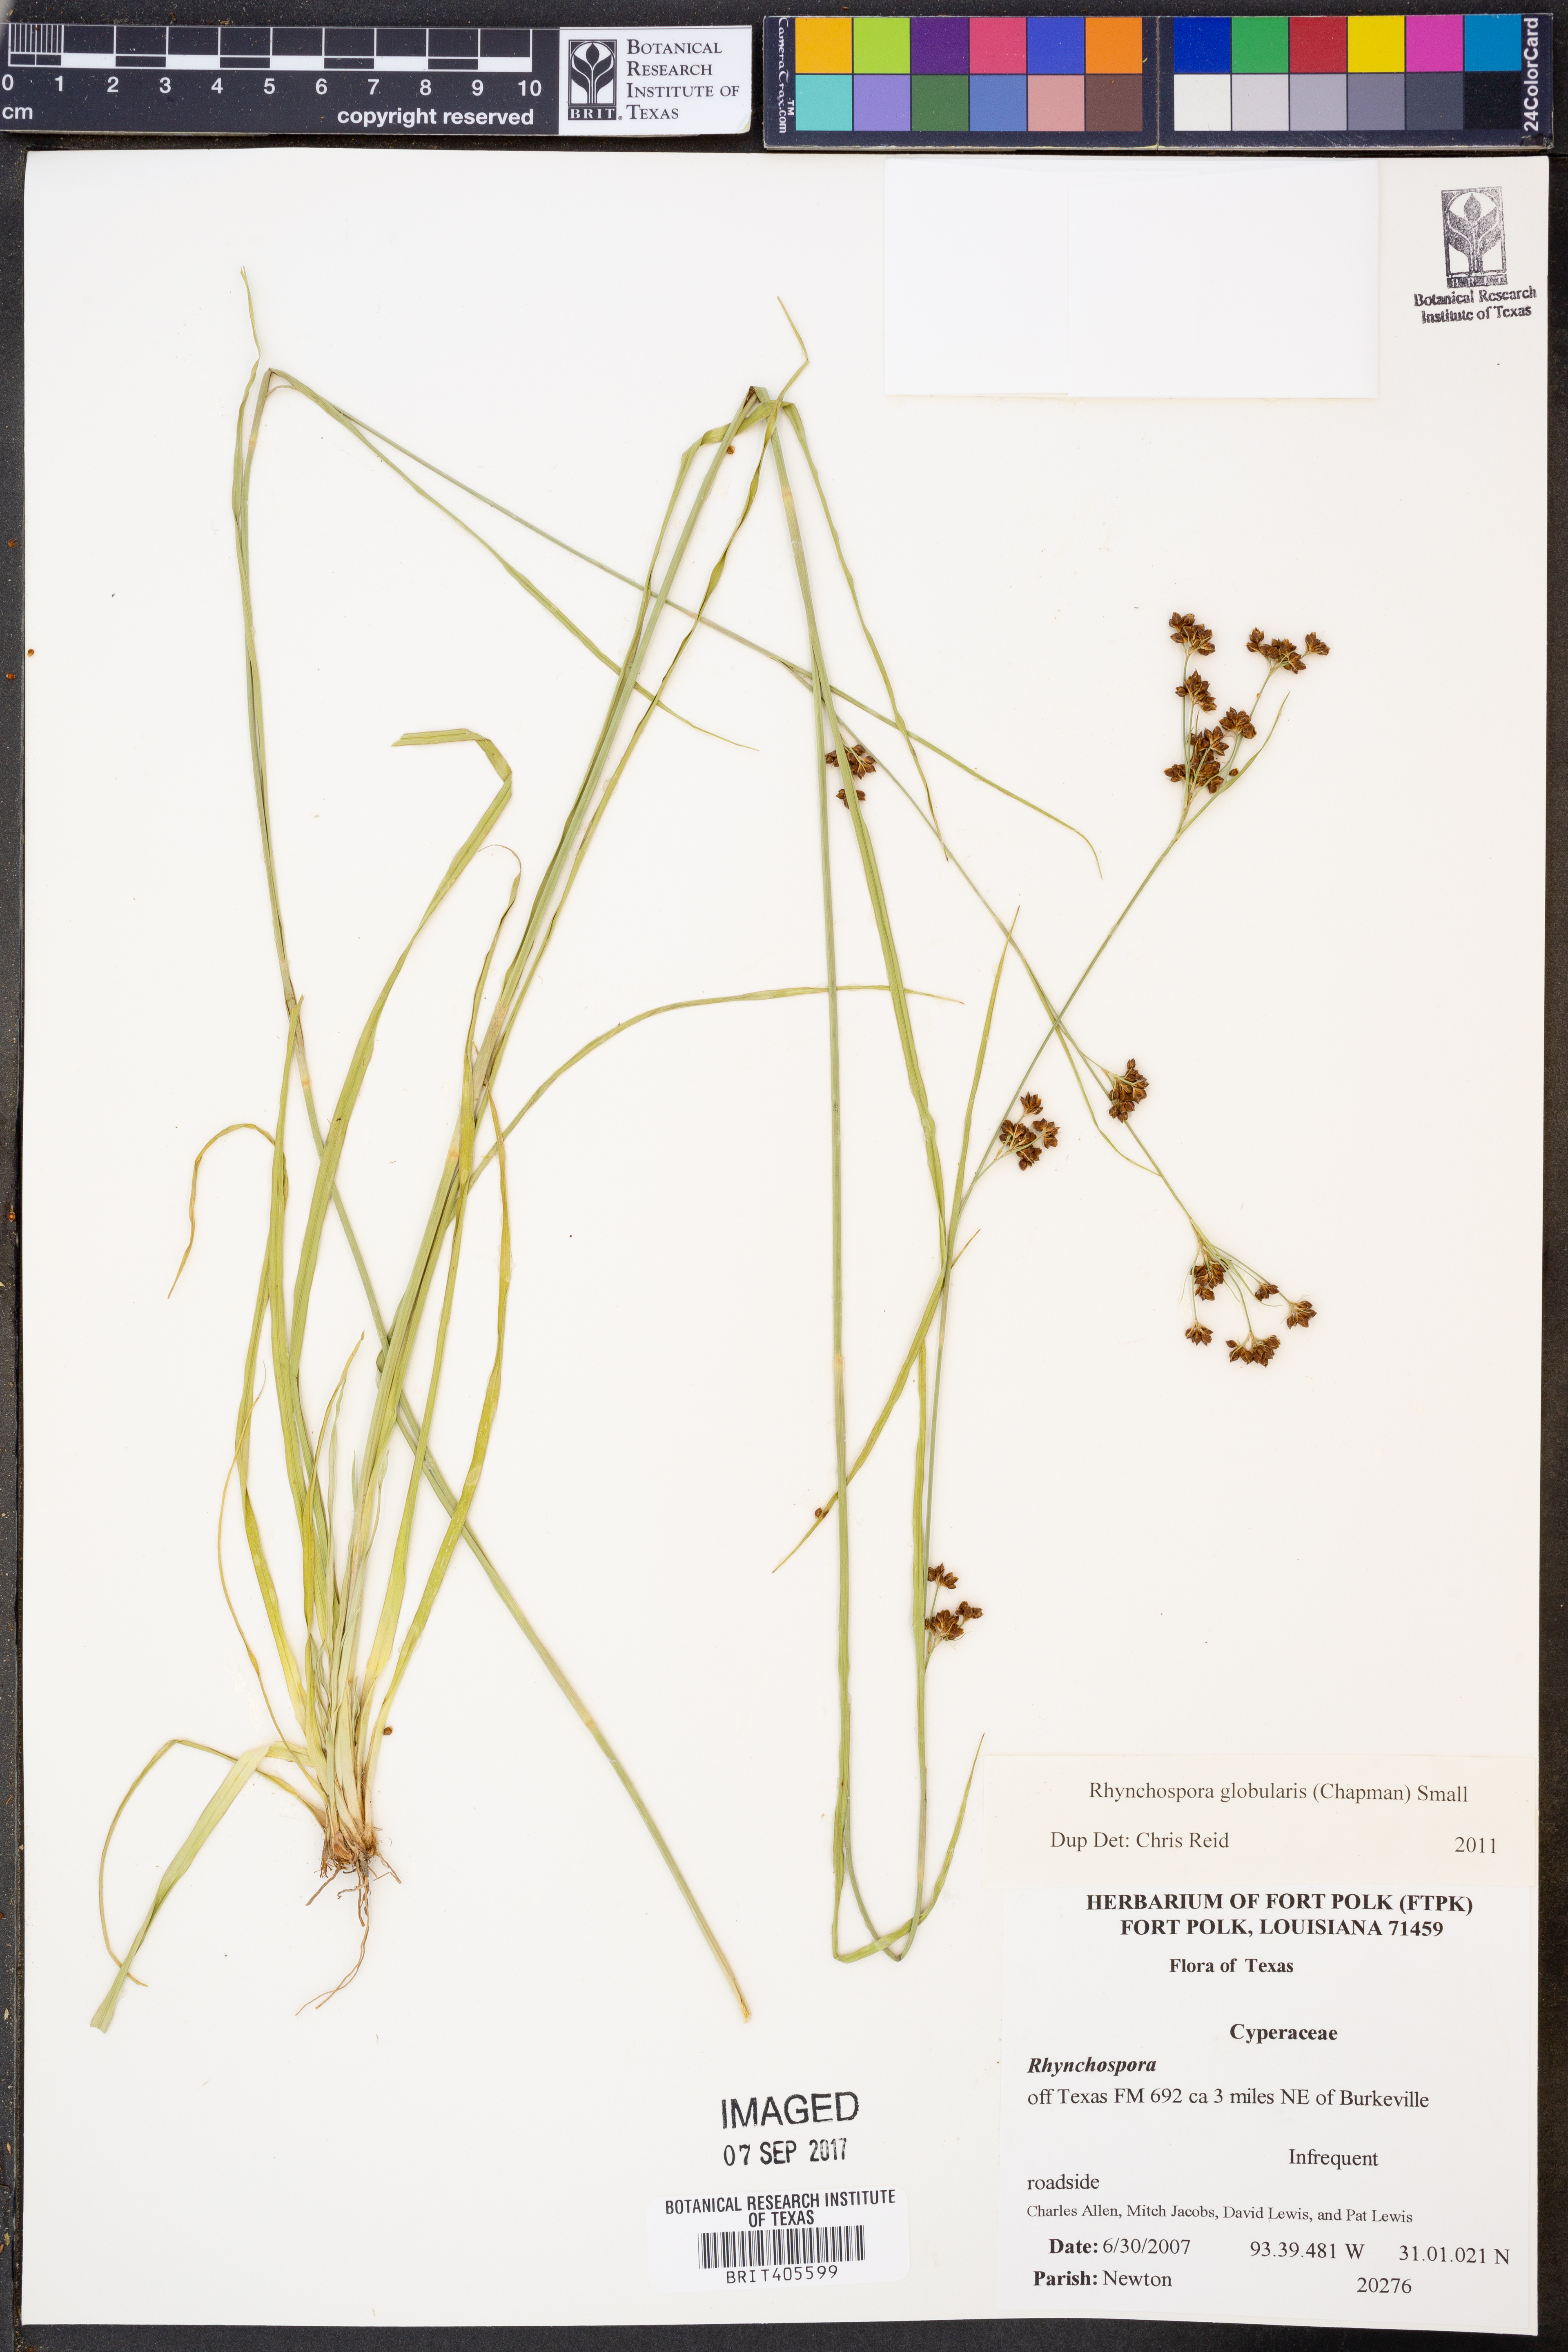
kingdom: Plantae
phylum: Tracheophyta
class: Liliopsida
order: Poales
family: Cyperaceae
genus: Rhynchospora
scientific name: Rhynchospora globularis
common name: Globe beaksedge
